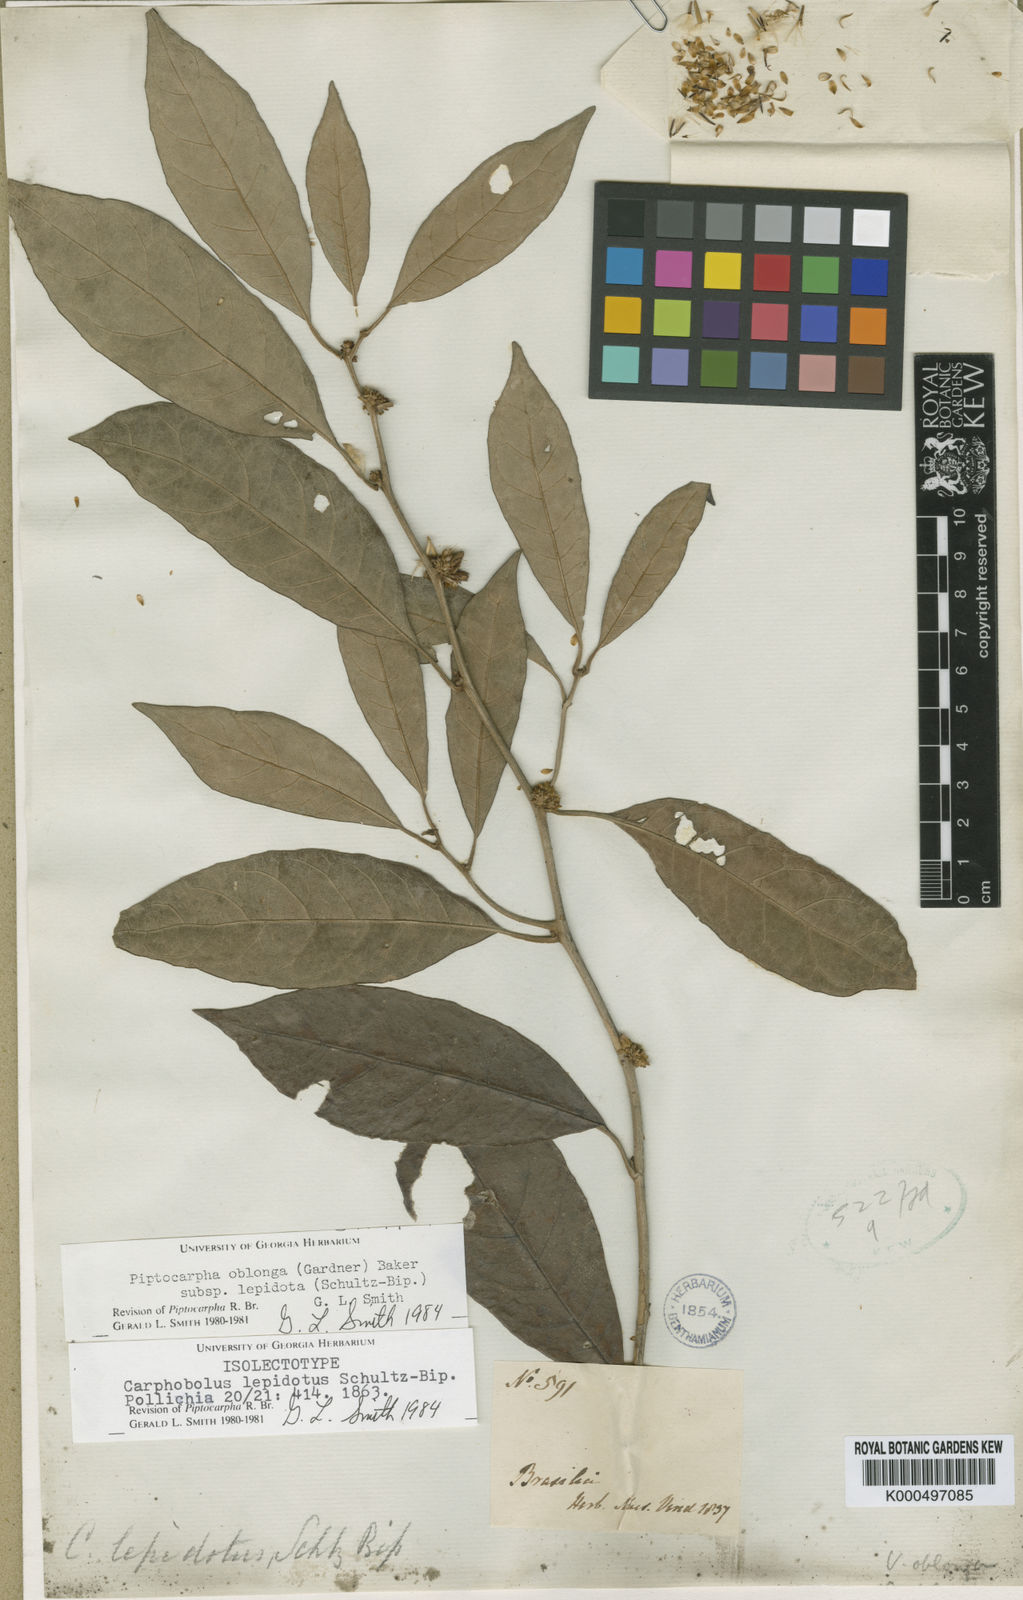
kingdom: Plantae
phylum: Tracheophyta
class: Magnoliopsida
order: Asterales
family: Asteraceae
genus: Piptocarpha
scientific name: Piptocarpha oblonga
